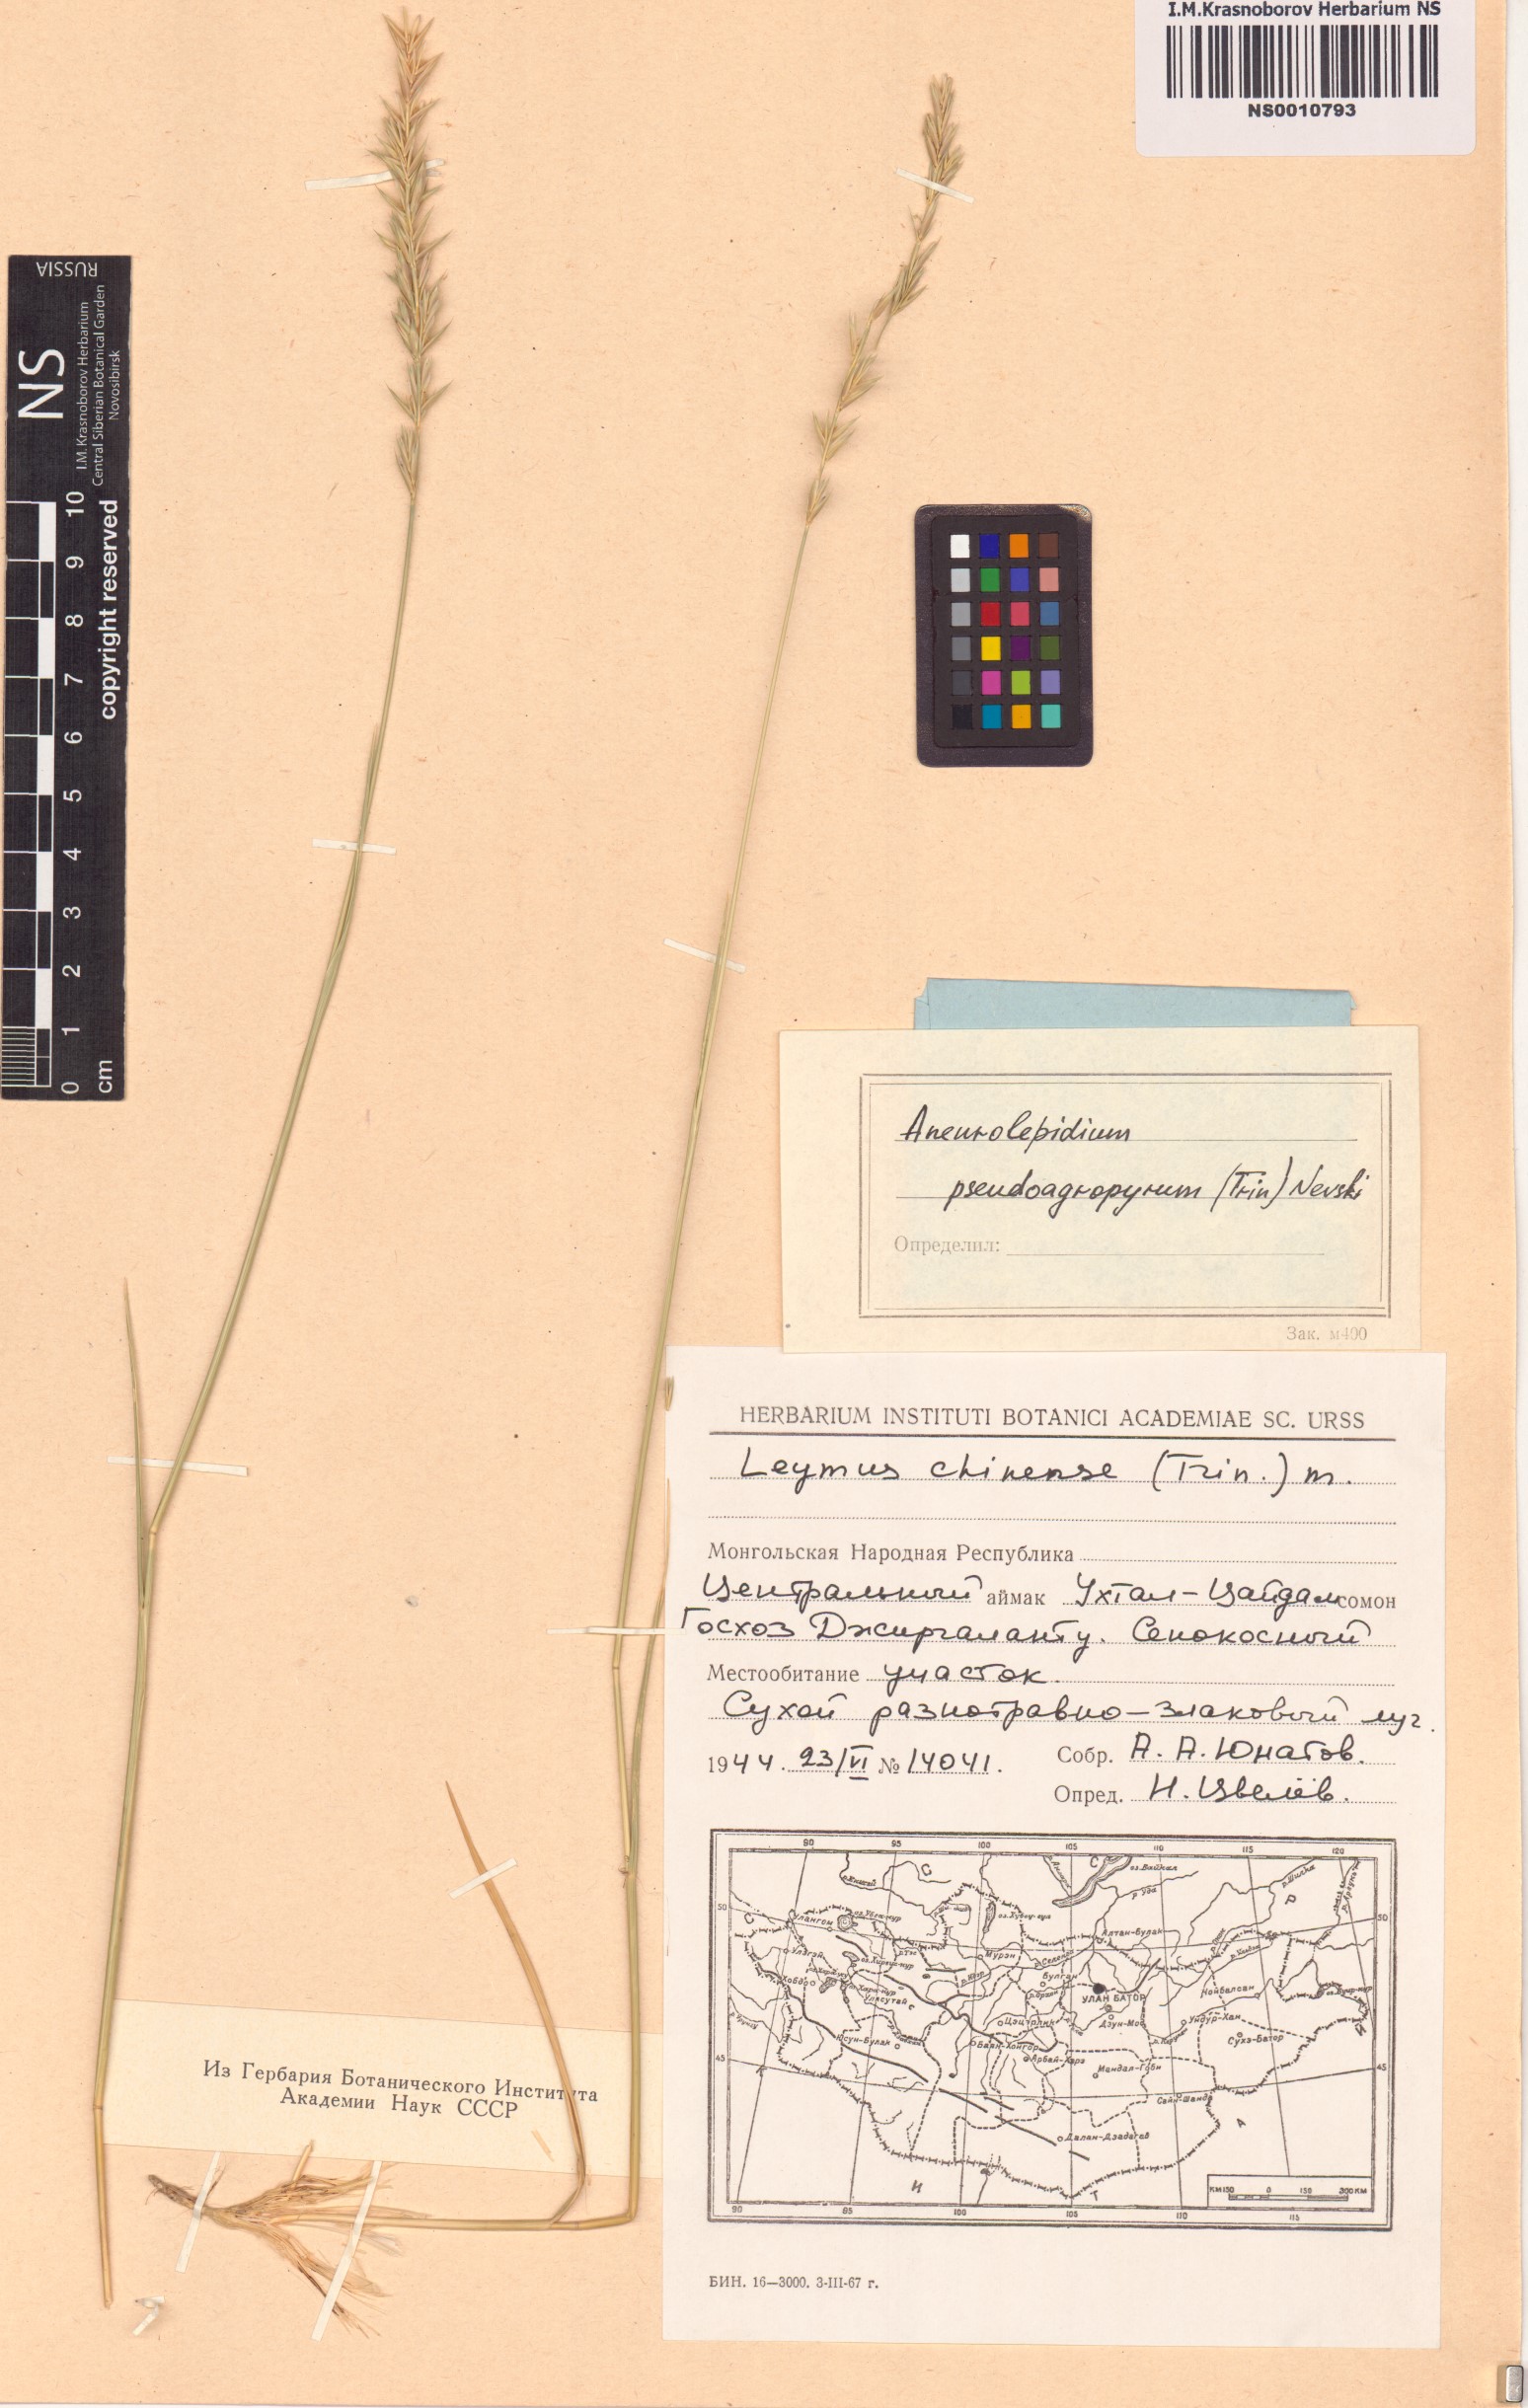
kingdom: Plantae
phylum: Tracheophyta
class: Liliopsida
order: Poales
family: Poaceae
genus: Leymus
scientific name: Leymus chinensis
